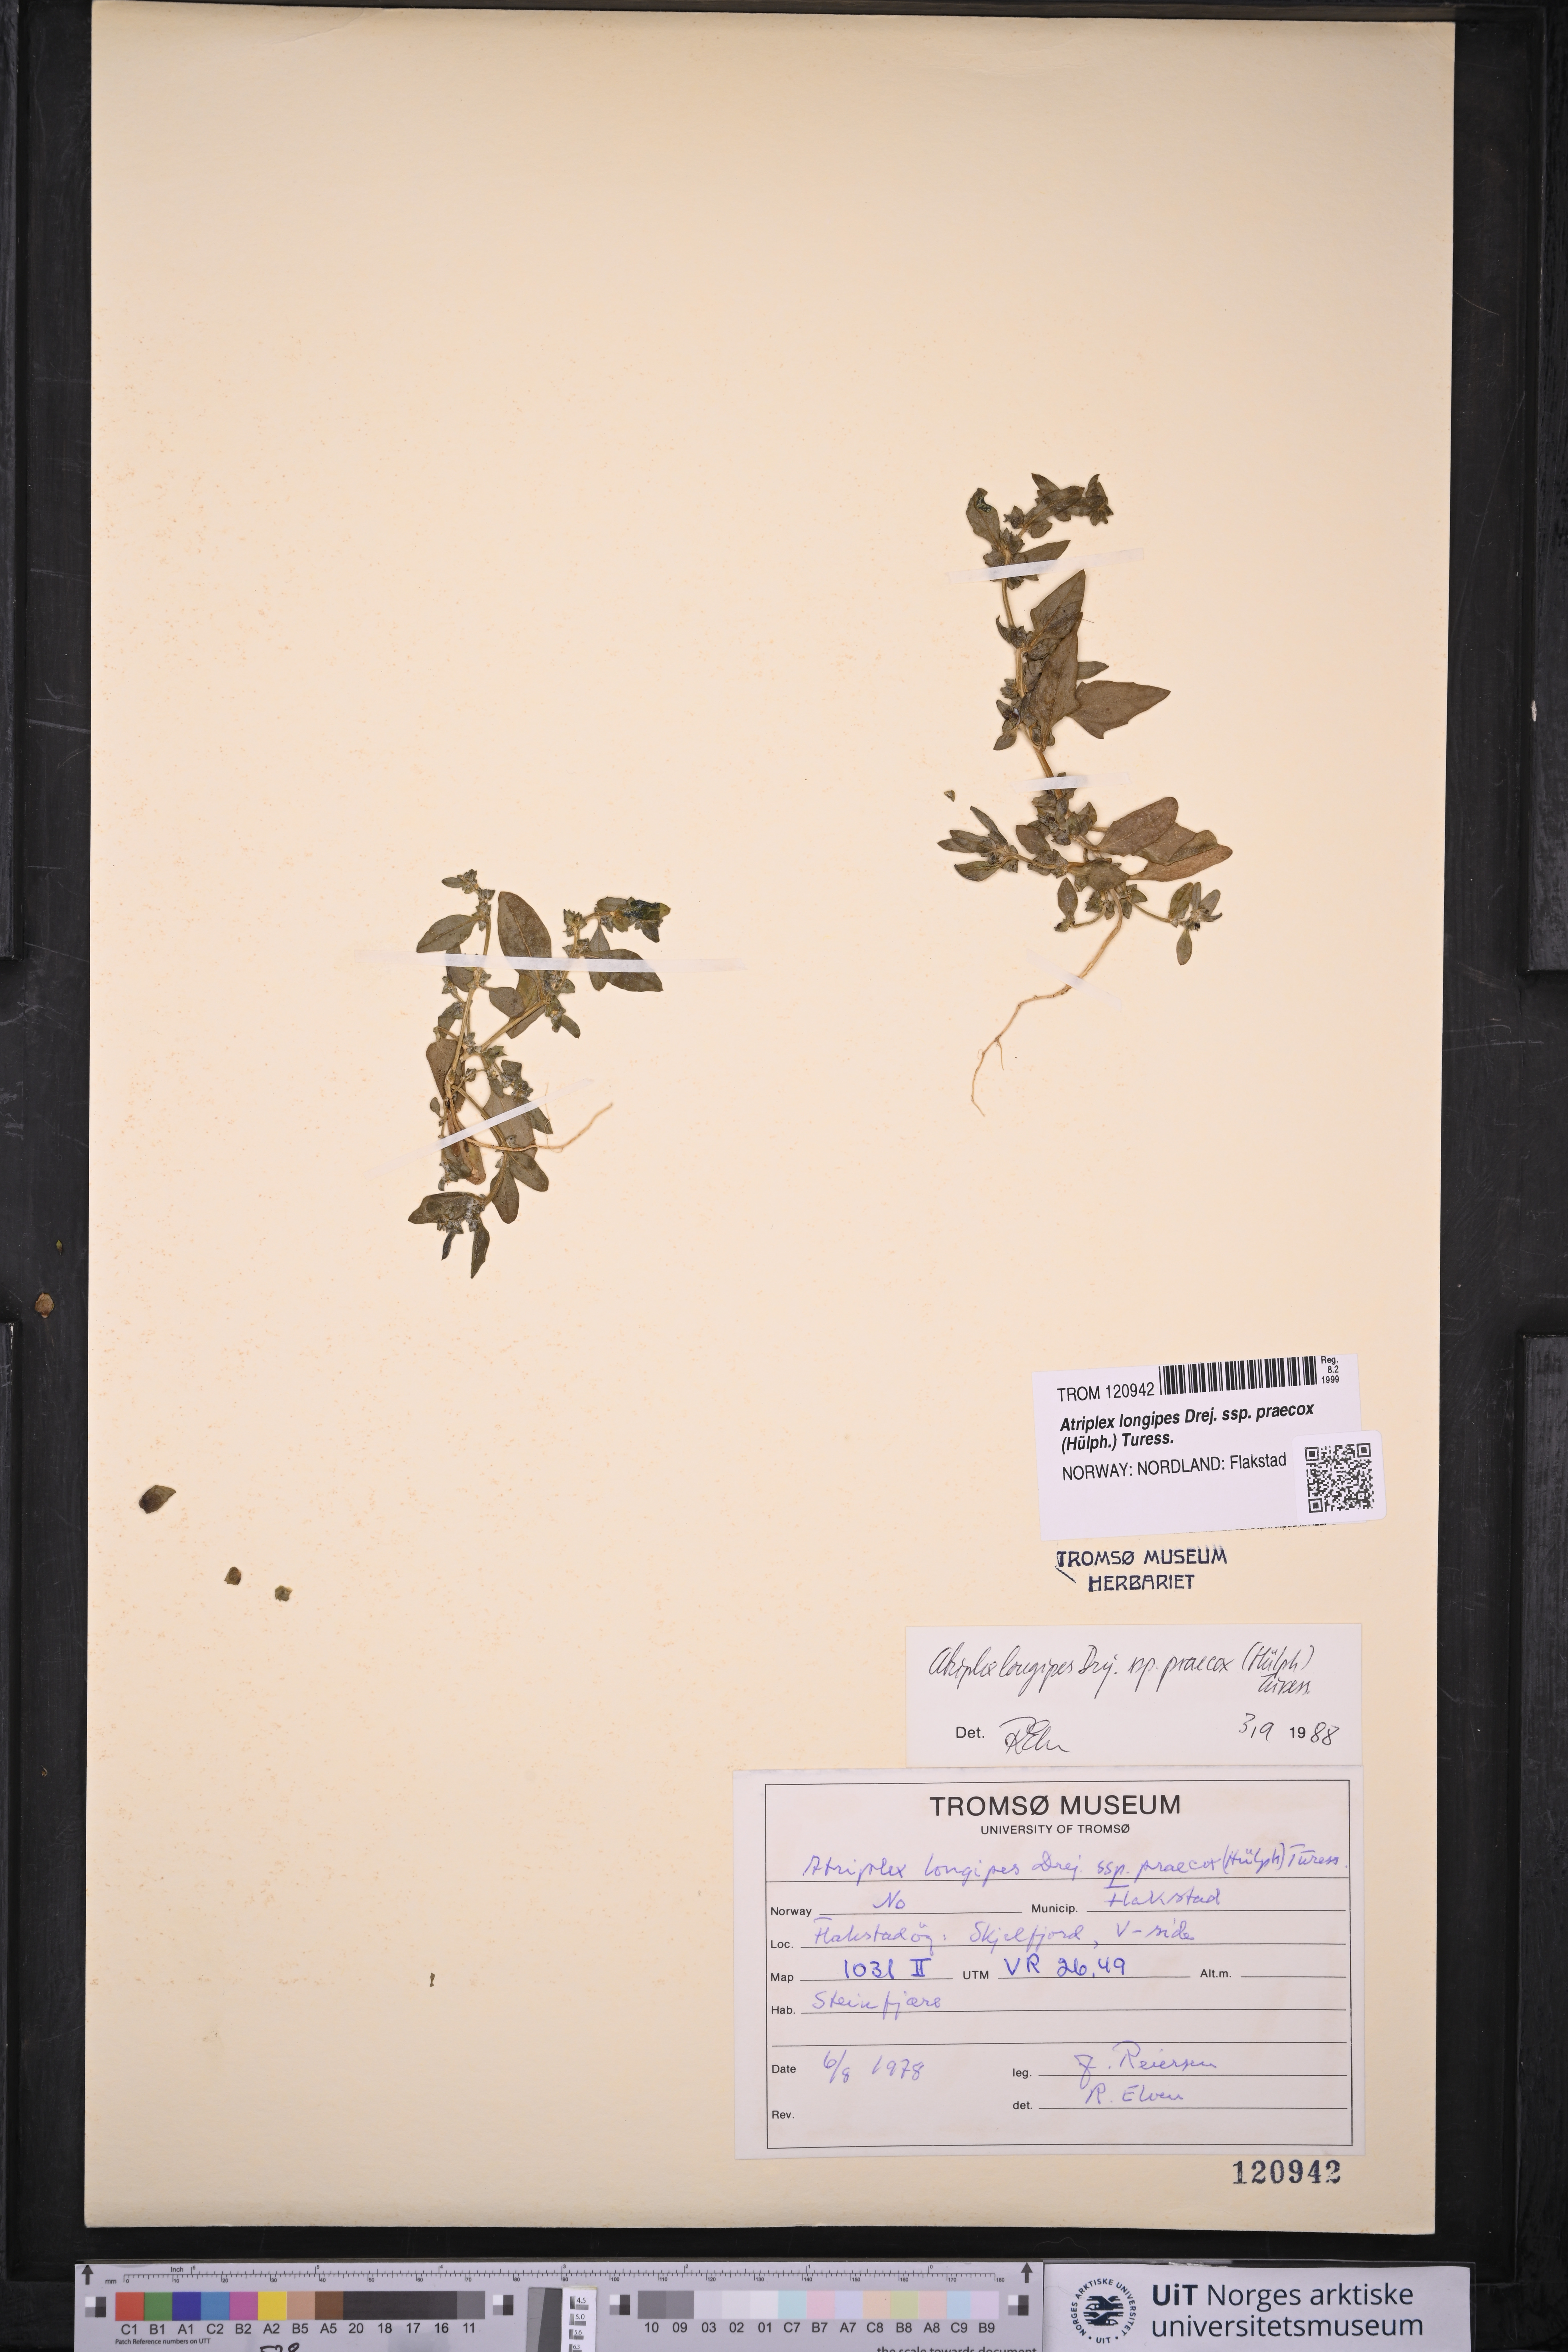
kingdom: Plantae
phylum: Tracheophyta
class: Magnoliopsida
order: Caryophyllales
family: Amaranthaceae
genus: Atriplex
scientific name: Atriplex praecox
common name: Early orache
